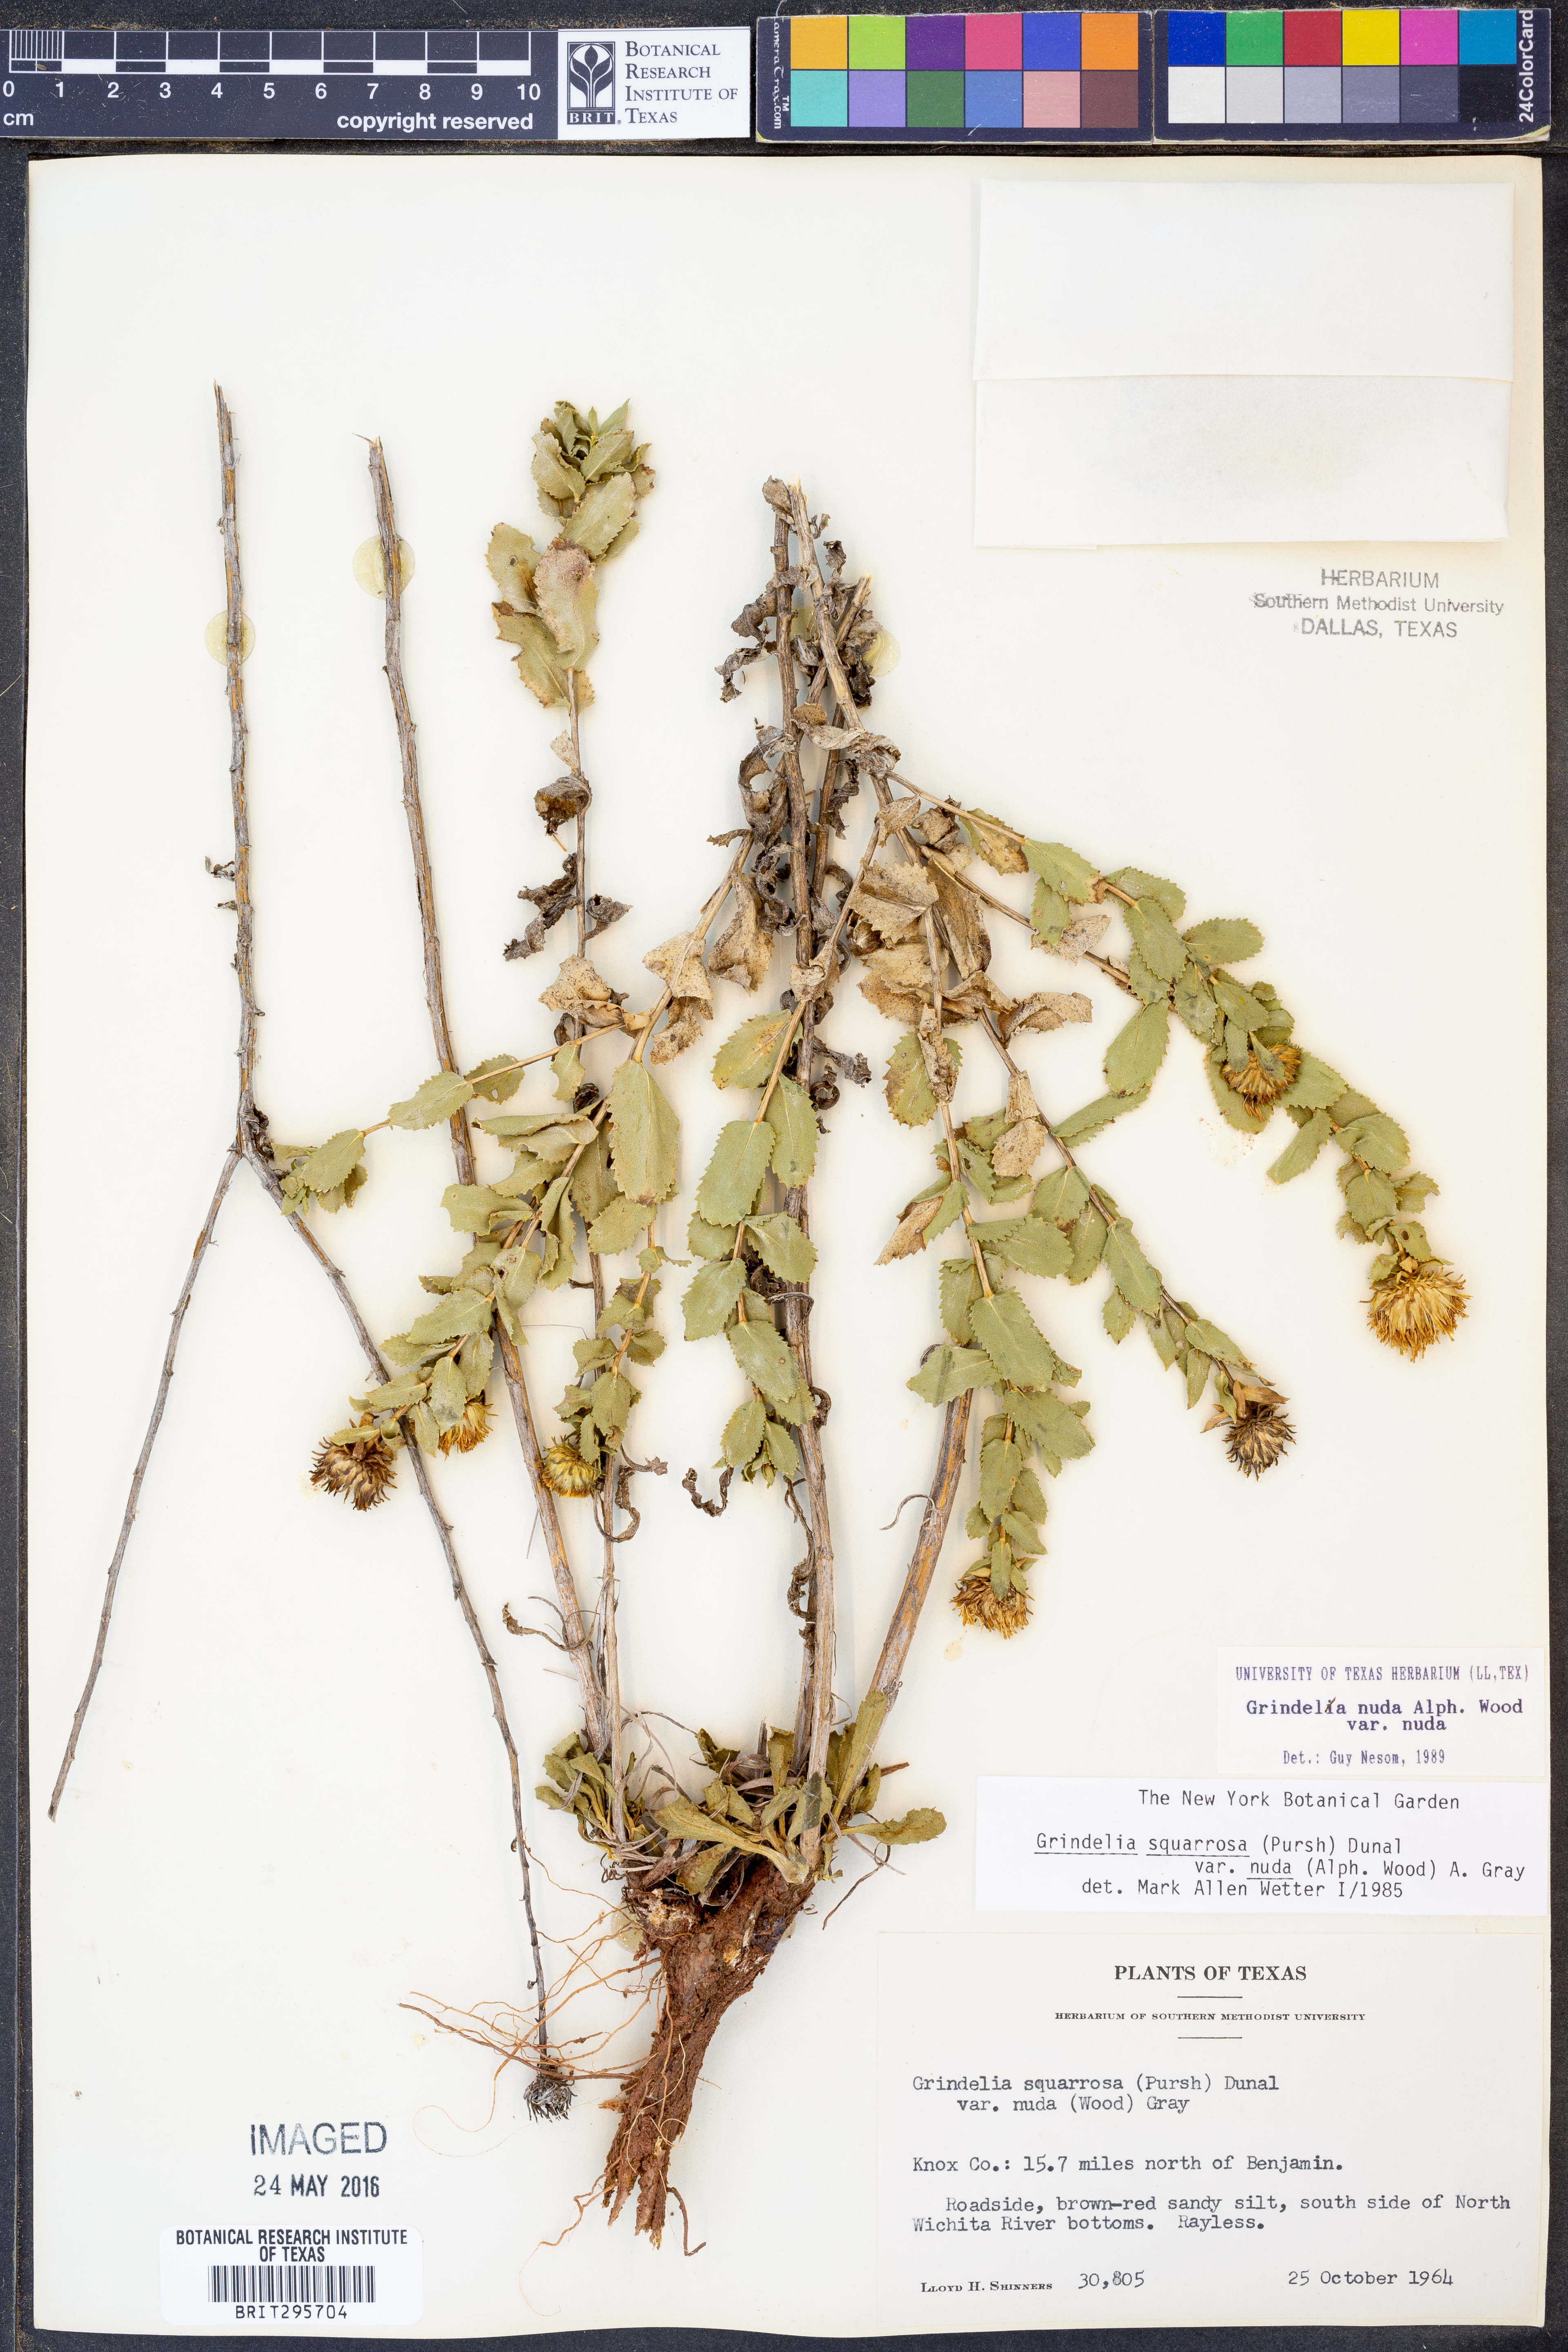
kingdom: Plantae
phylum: Tracheophyta
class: Magnoliopsida
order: Asterales
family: Asteraceae
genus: Grindelia
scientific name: Grindelia nuda
